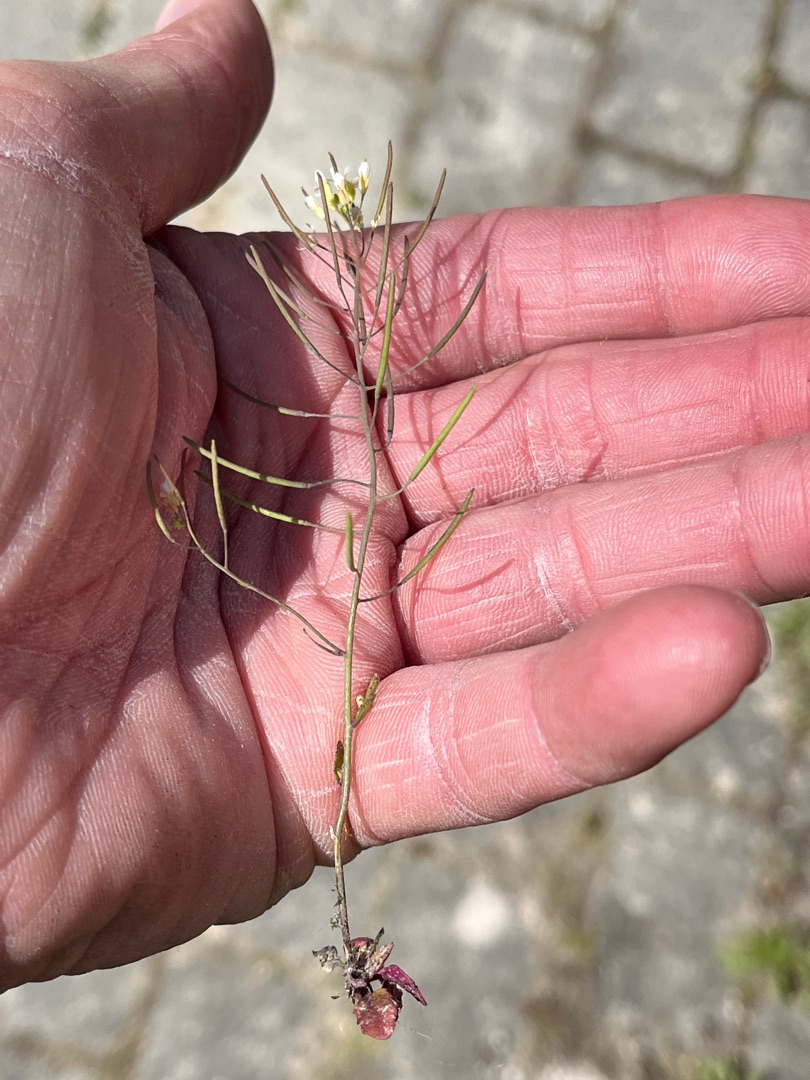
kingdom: Plantae
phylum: Tracheophyta
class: Magnoliopsida
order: Brassicales
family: Brassicaceae
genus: Arabidopsis
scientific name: Arabidopsis thaliana
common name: Almindelig gåsemad
